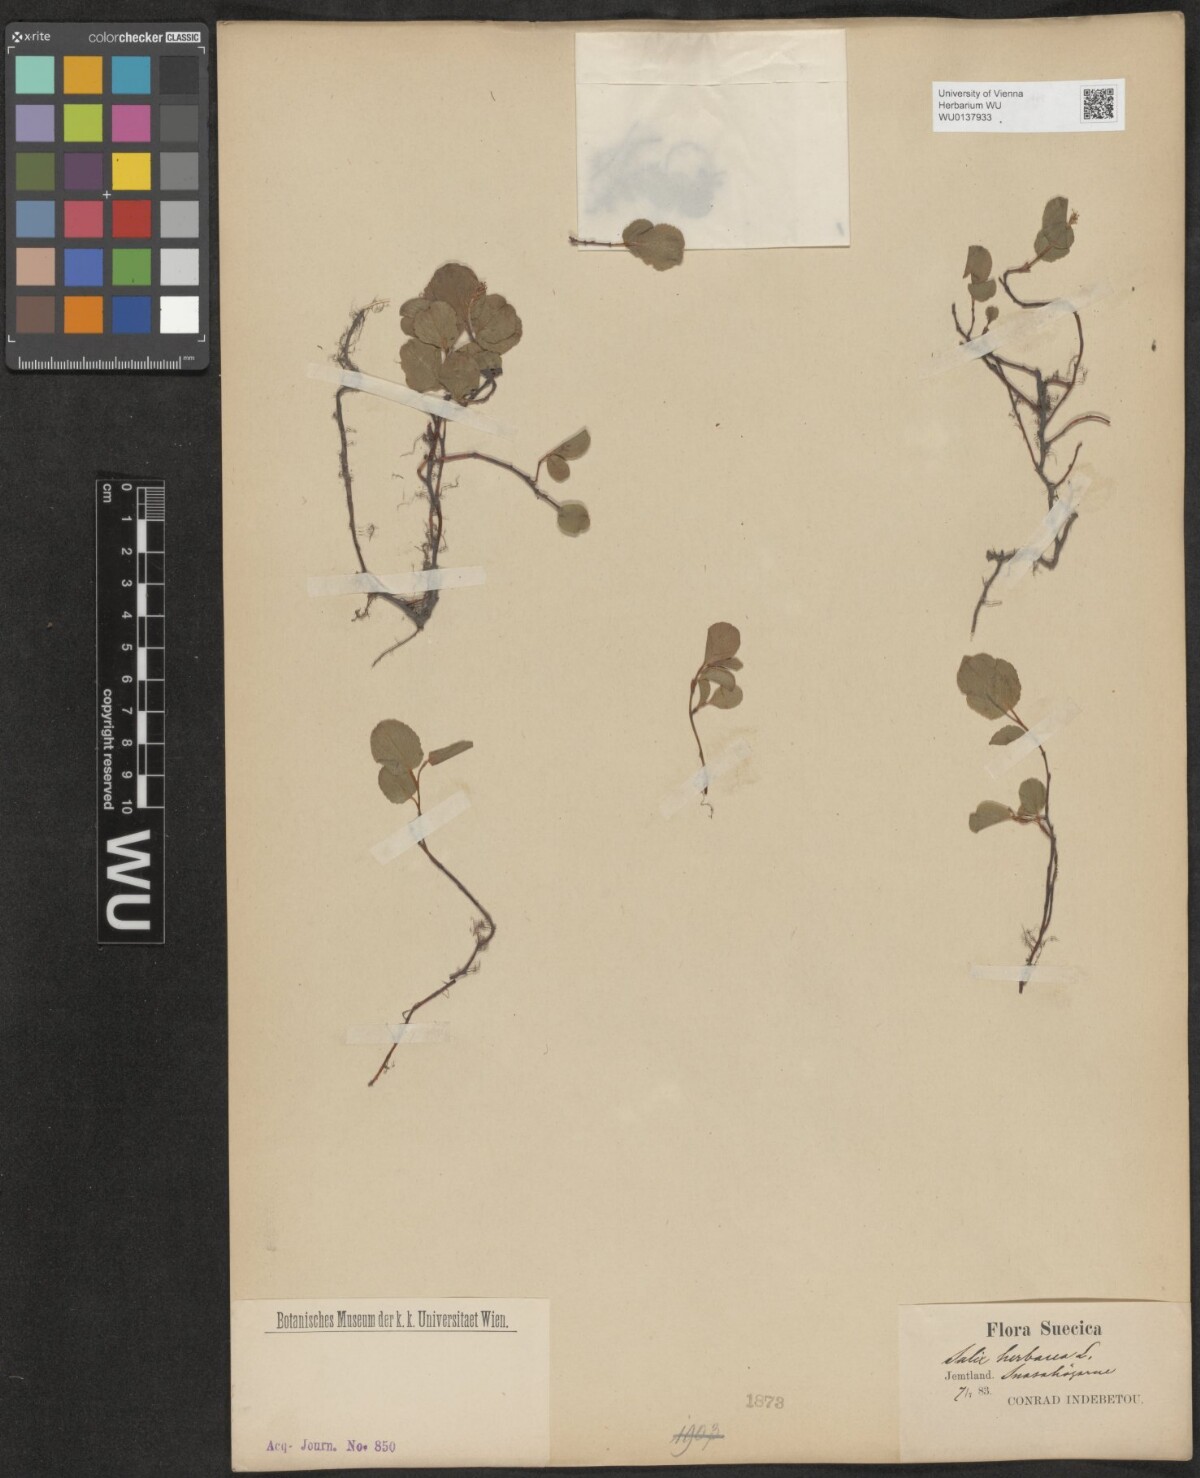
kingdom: Plantae
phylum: Tracheophyta
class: Magnoliopsida
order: Malpighiales
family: Salicaceae
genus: Salix
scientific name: Salix herbacea
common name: Dwarf willow
